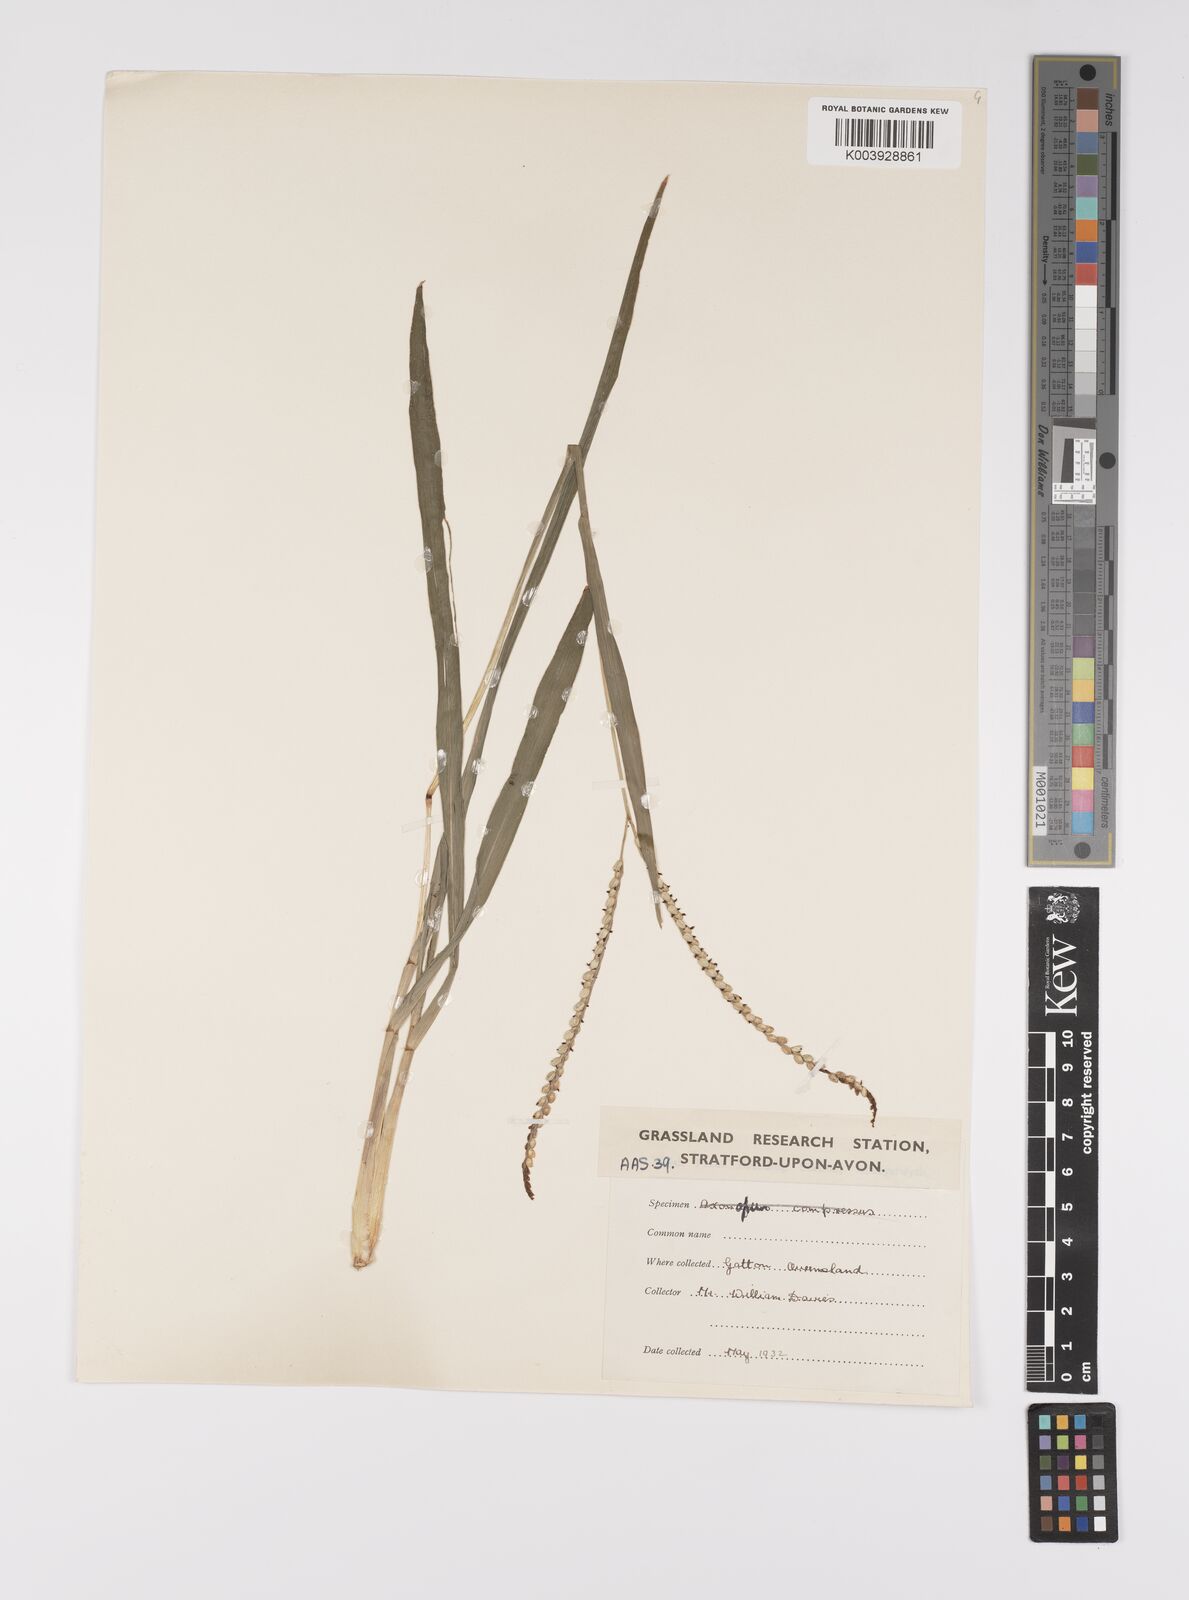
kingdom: Plantae
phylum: Tracheophyta
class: Liliopsida
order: Poales
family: Poaceae
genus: Paspalum
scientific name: Paspalum notatum
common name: Bahiagrass
